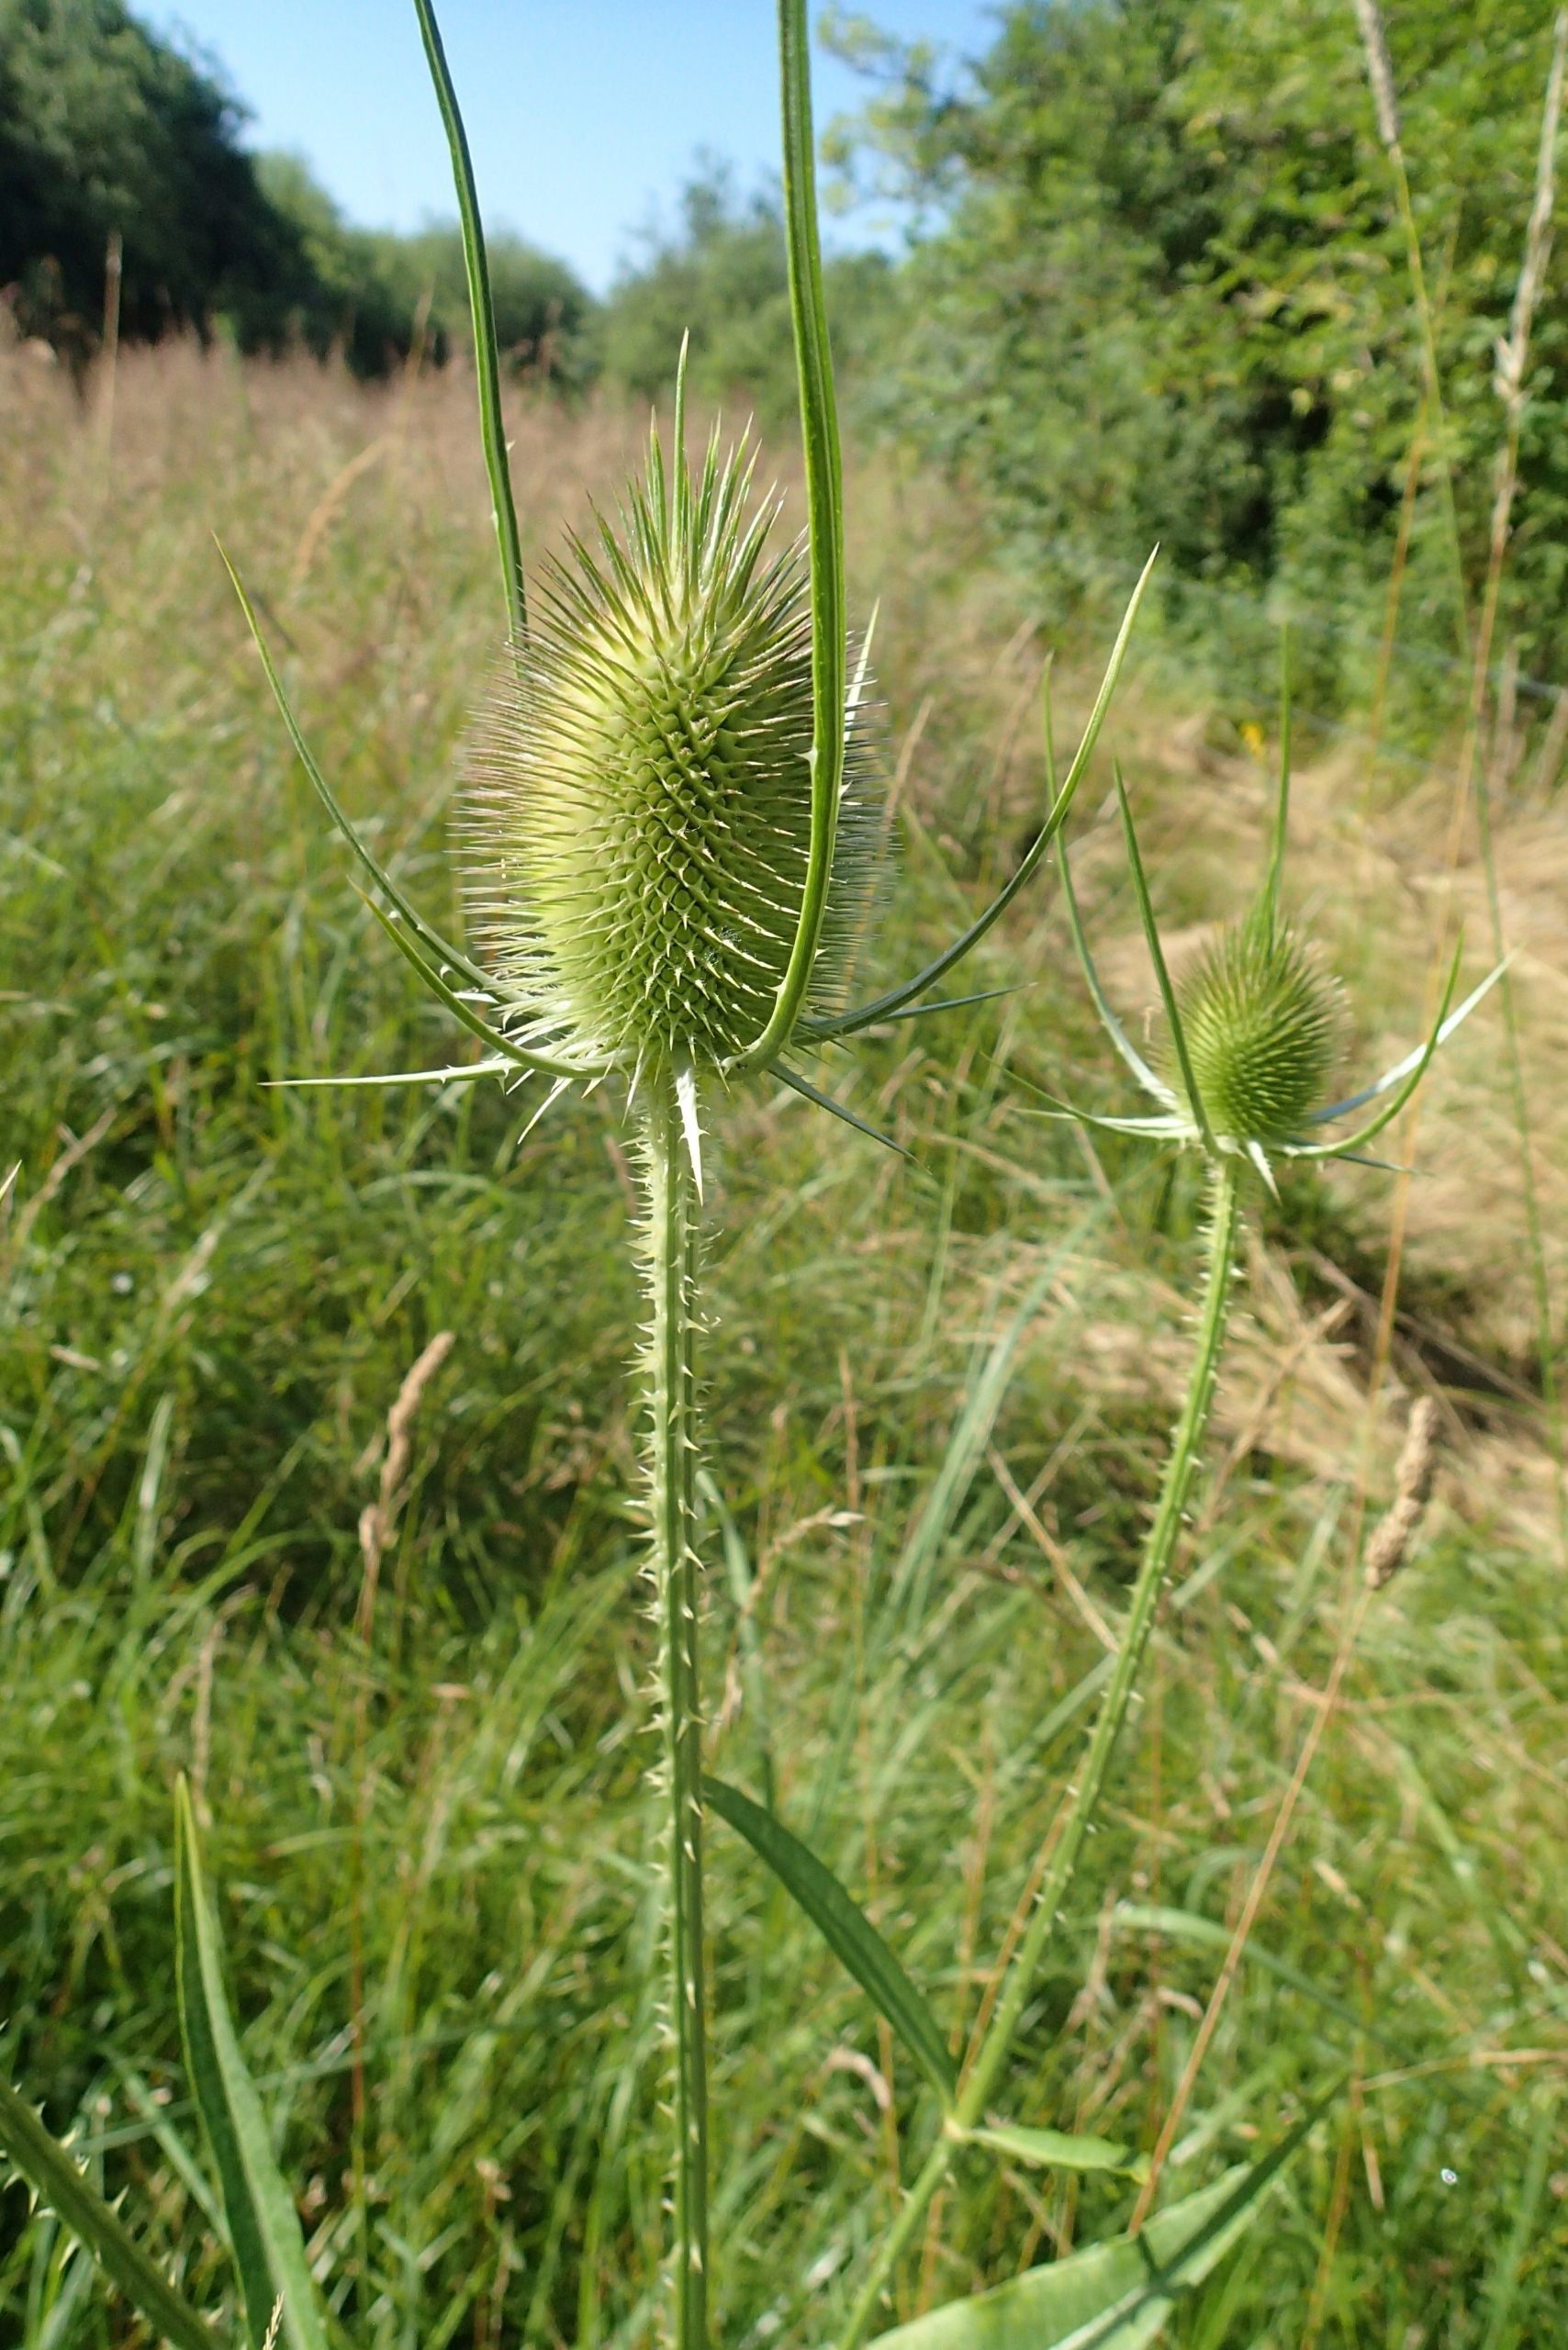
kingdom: Plantae
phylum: Tracheophyta
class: Magnoliopsida
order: Dipsacales
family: Caprifoliaceae
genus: Dipsacus
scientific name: Dipsacus fullonum
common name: Gærde-kartebolle
